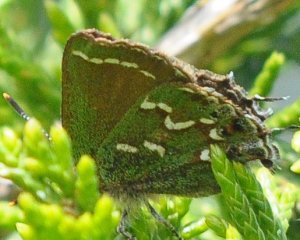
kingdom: Animalia
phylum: Arthropoda
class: Insecta
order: Lepidoptera
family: Lycaenidae
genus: Mitoura
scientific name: Mitoura gryneus
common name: Juniper Hairstreak
